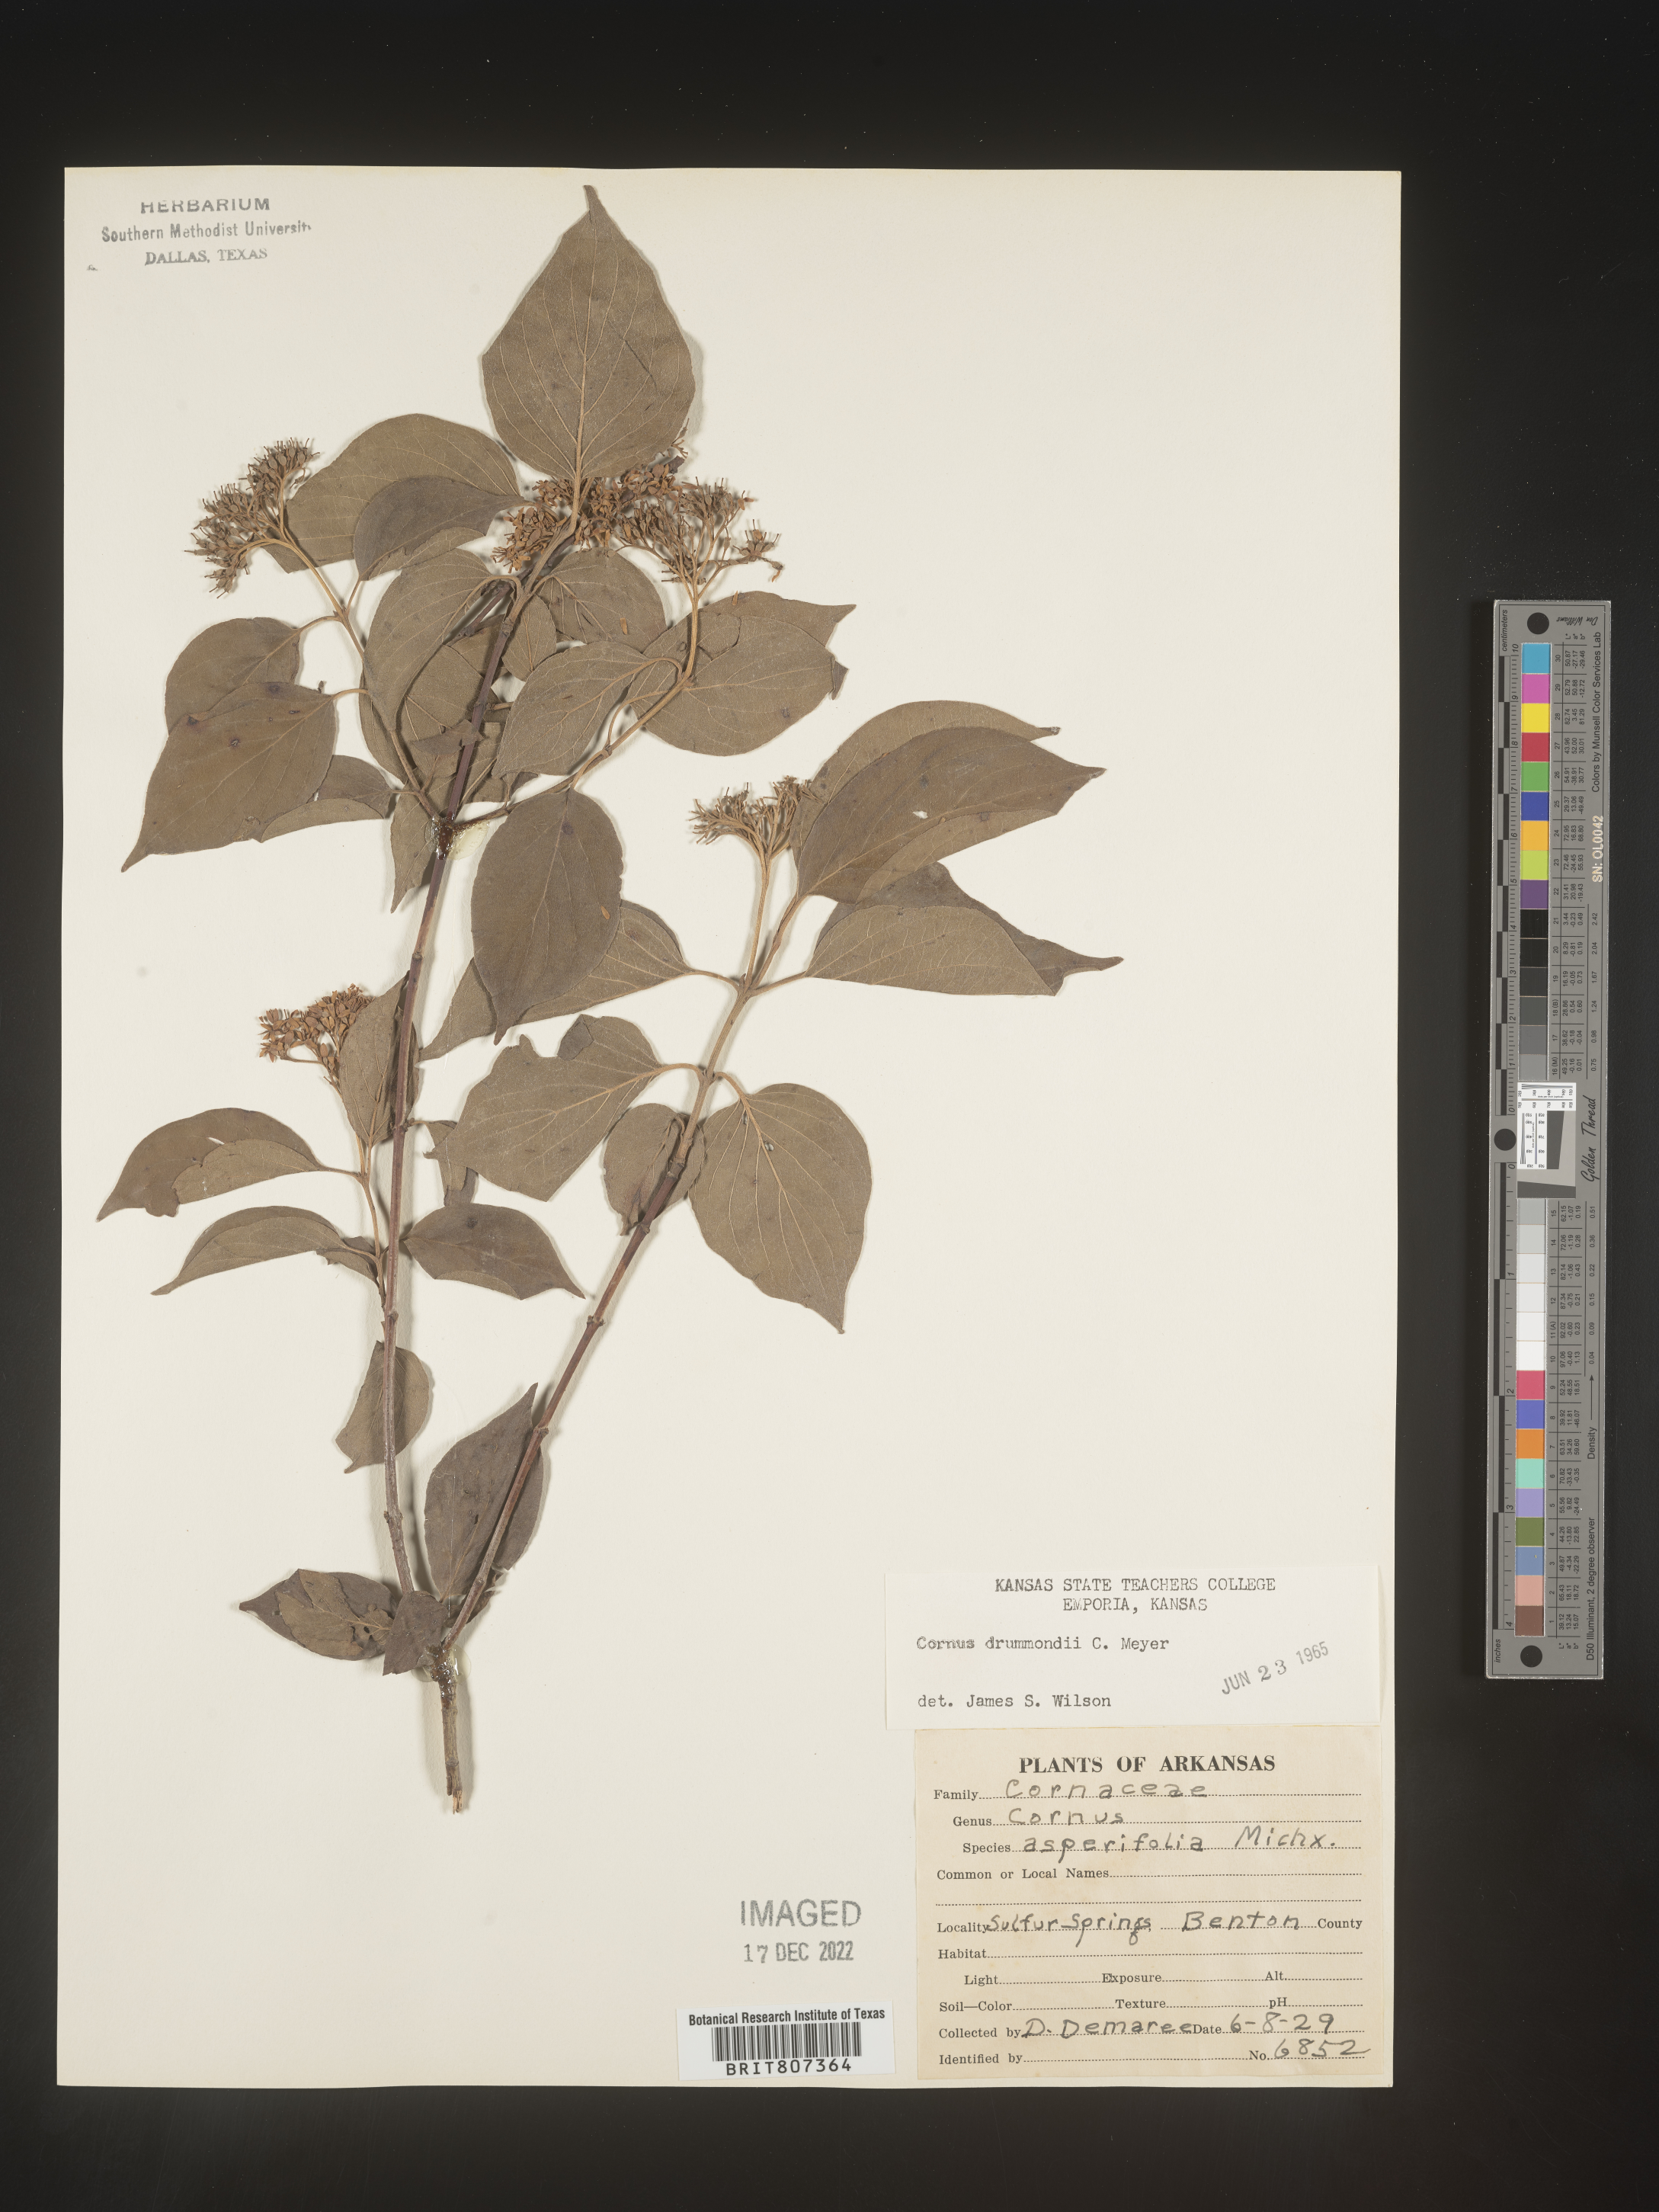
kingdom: Plantae
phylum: Tracheophyta
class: Magnoliopsida
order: Cornales
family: Cornaceae
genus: Cornus
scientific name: Cornus drummondii
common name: Rough-leaf dogwood
